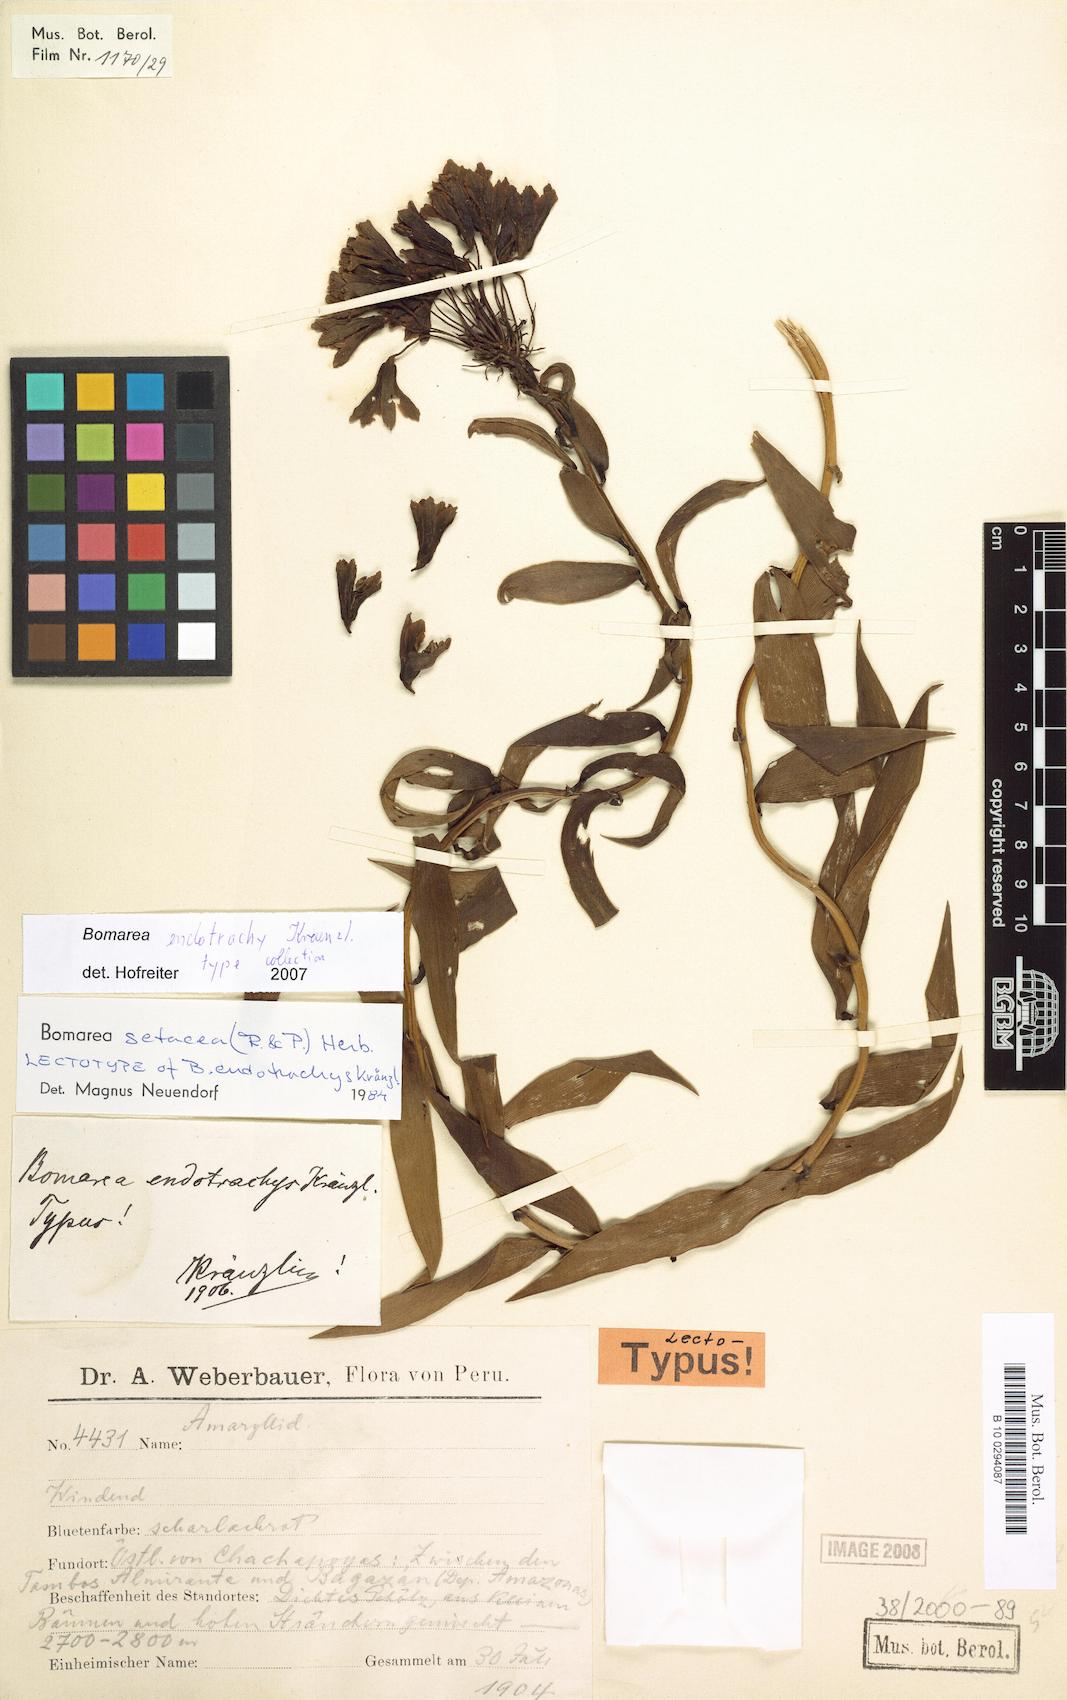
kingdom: Plantae
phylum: Tracheophyta
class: Liliopsida
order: Liliales
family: Alstroemeriaceae
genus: Bomarea
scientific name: Bomarea setacea
